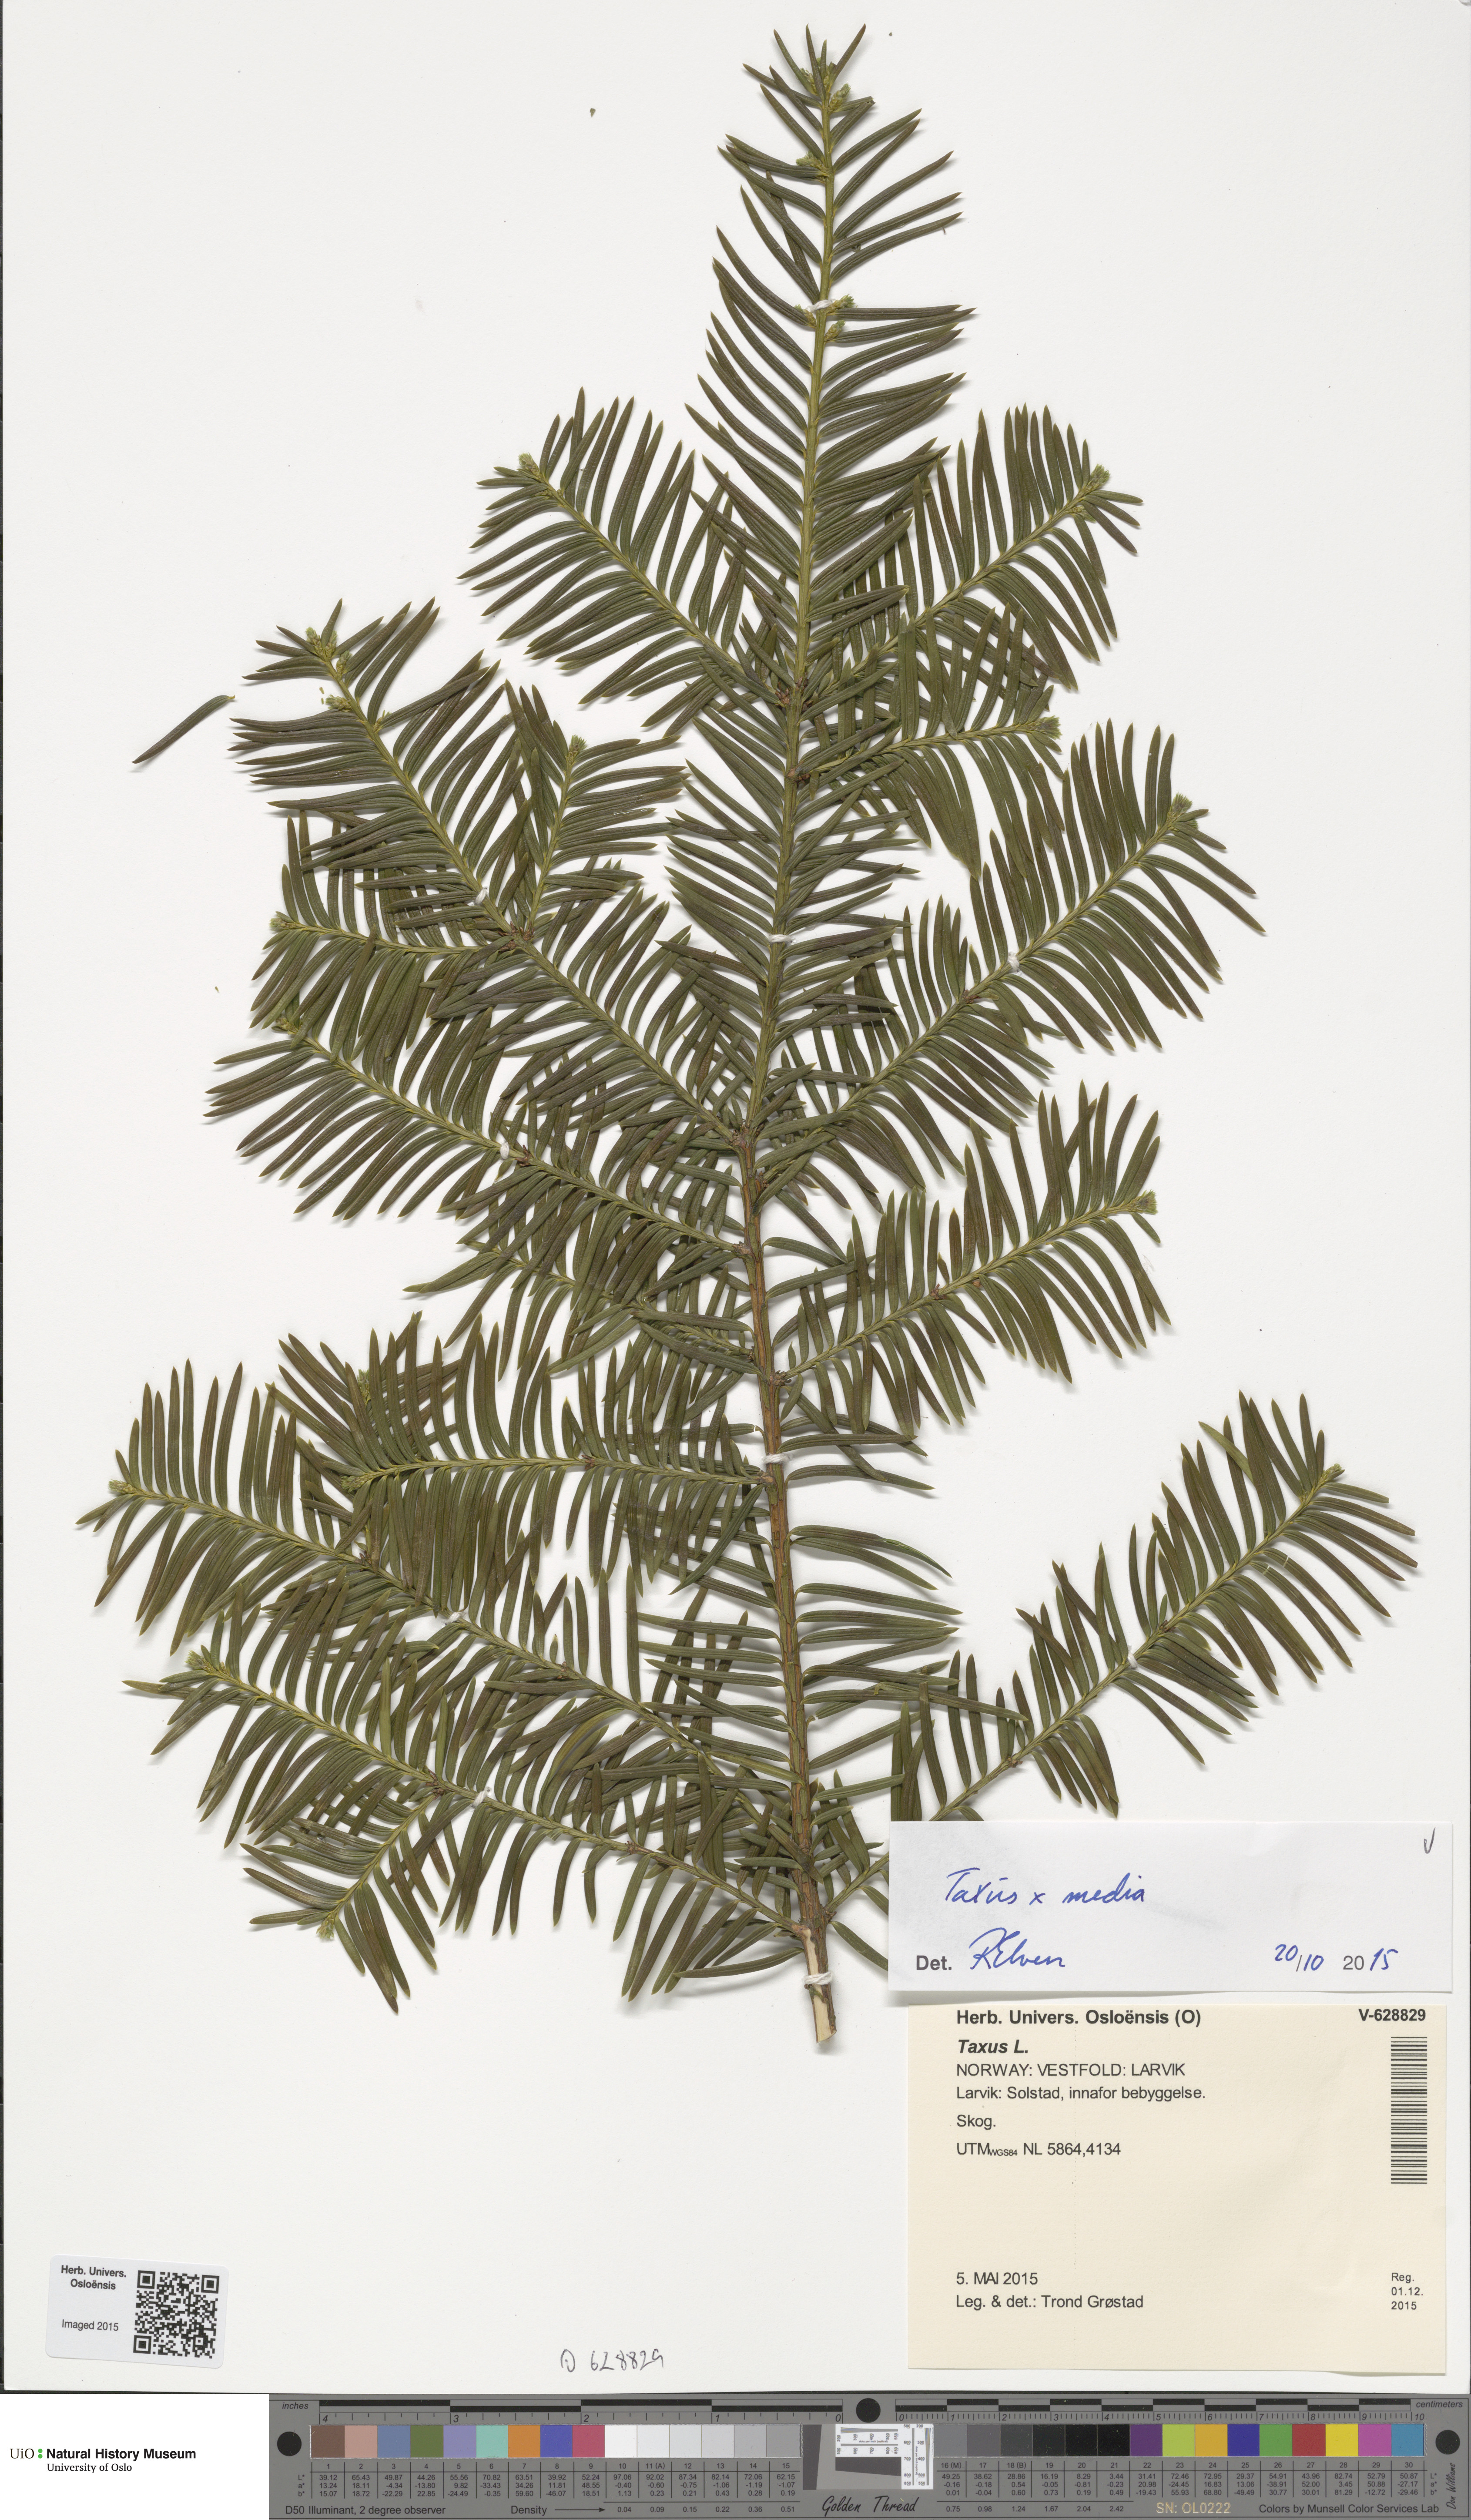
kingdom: Plantae
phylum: Tracheophyta
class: Pinopsida
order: Pinales
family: Taxaceae
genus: Taxus
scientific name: Taxus
